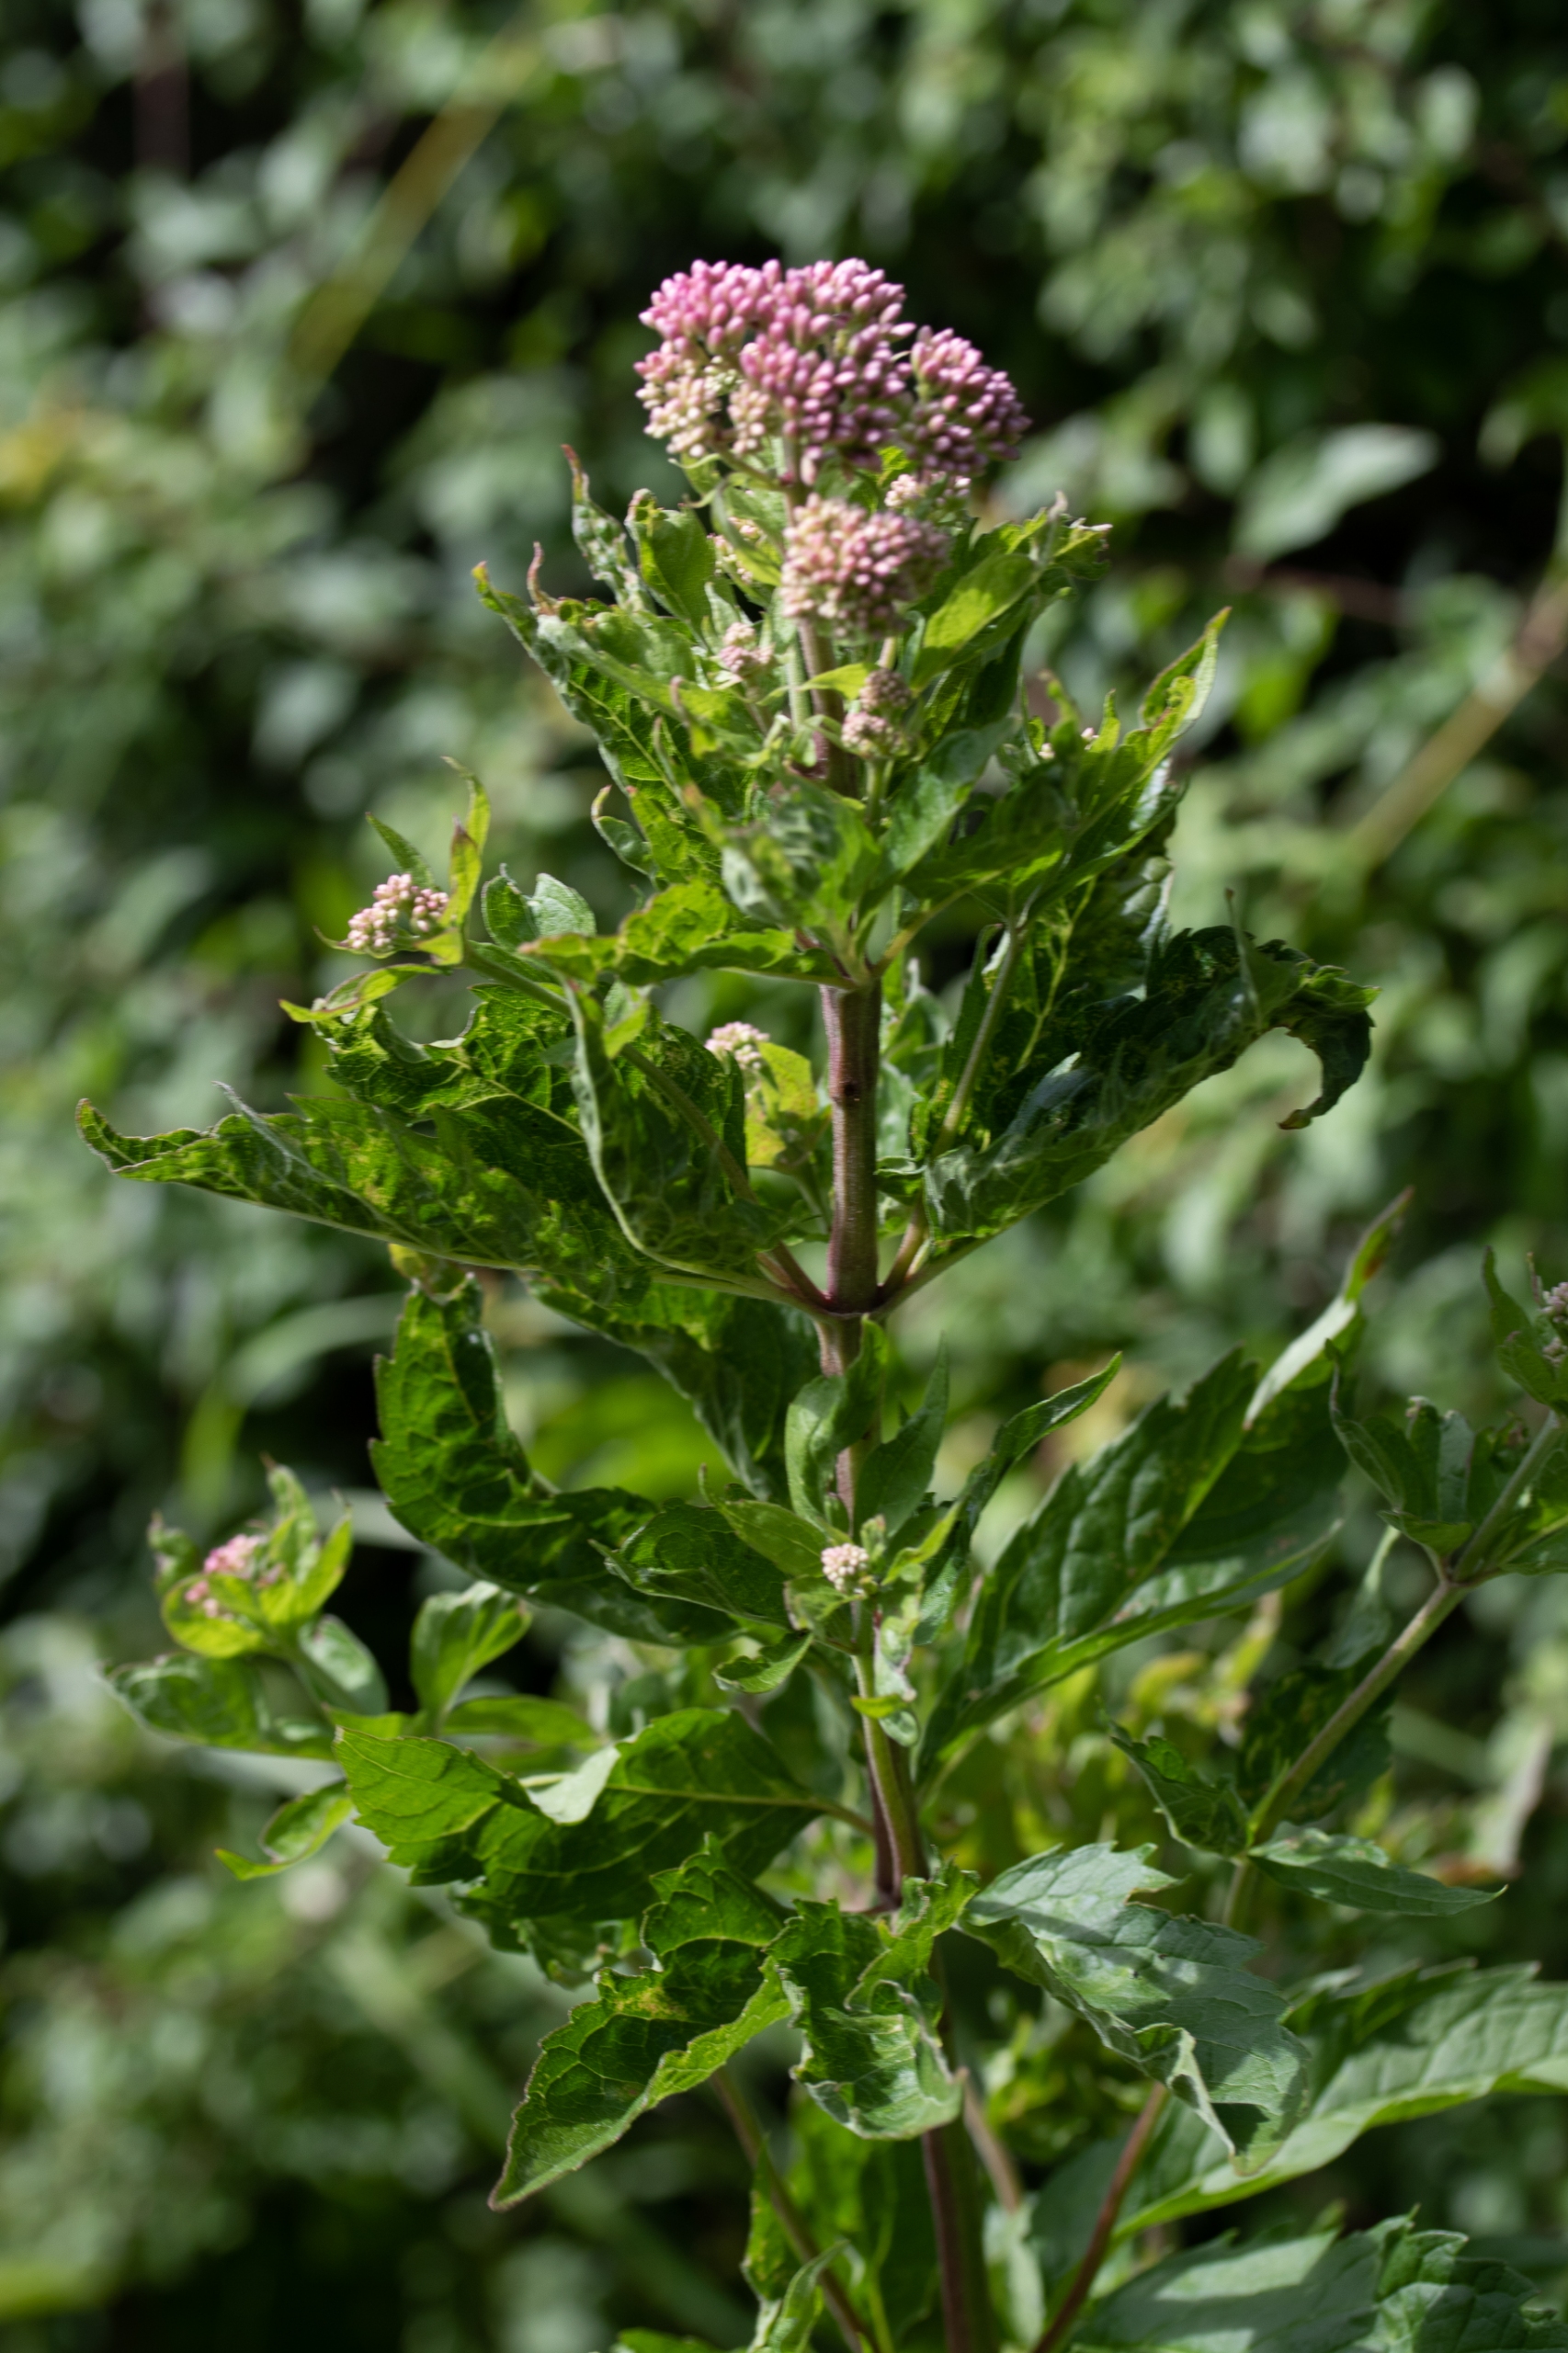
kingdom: Plantae
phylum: Tracheophyta
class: Magnoliopsida
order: Asterales
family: Asteraceae
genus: Eupatorium
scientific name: Eupatorium cannabinum
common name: Hjortetrøst
